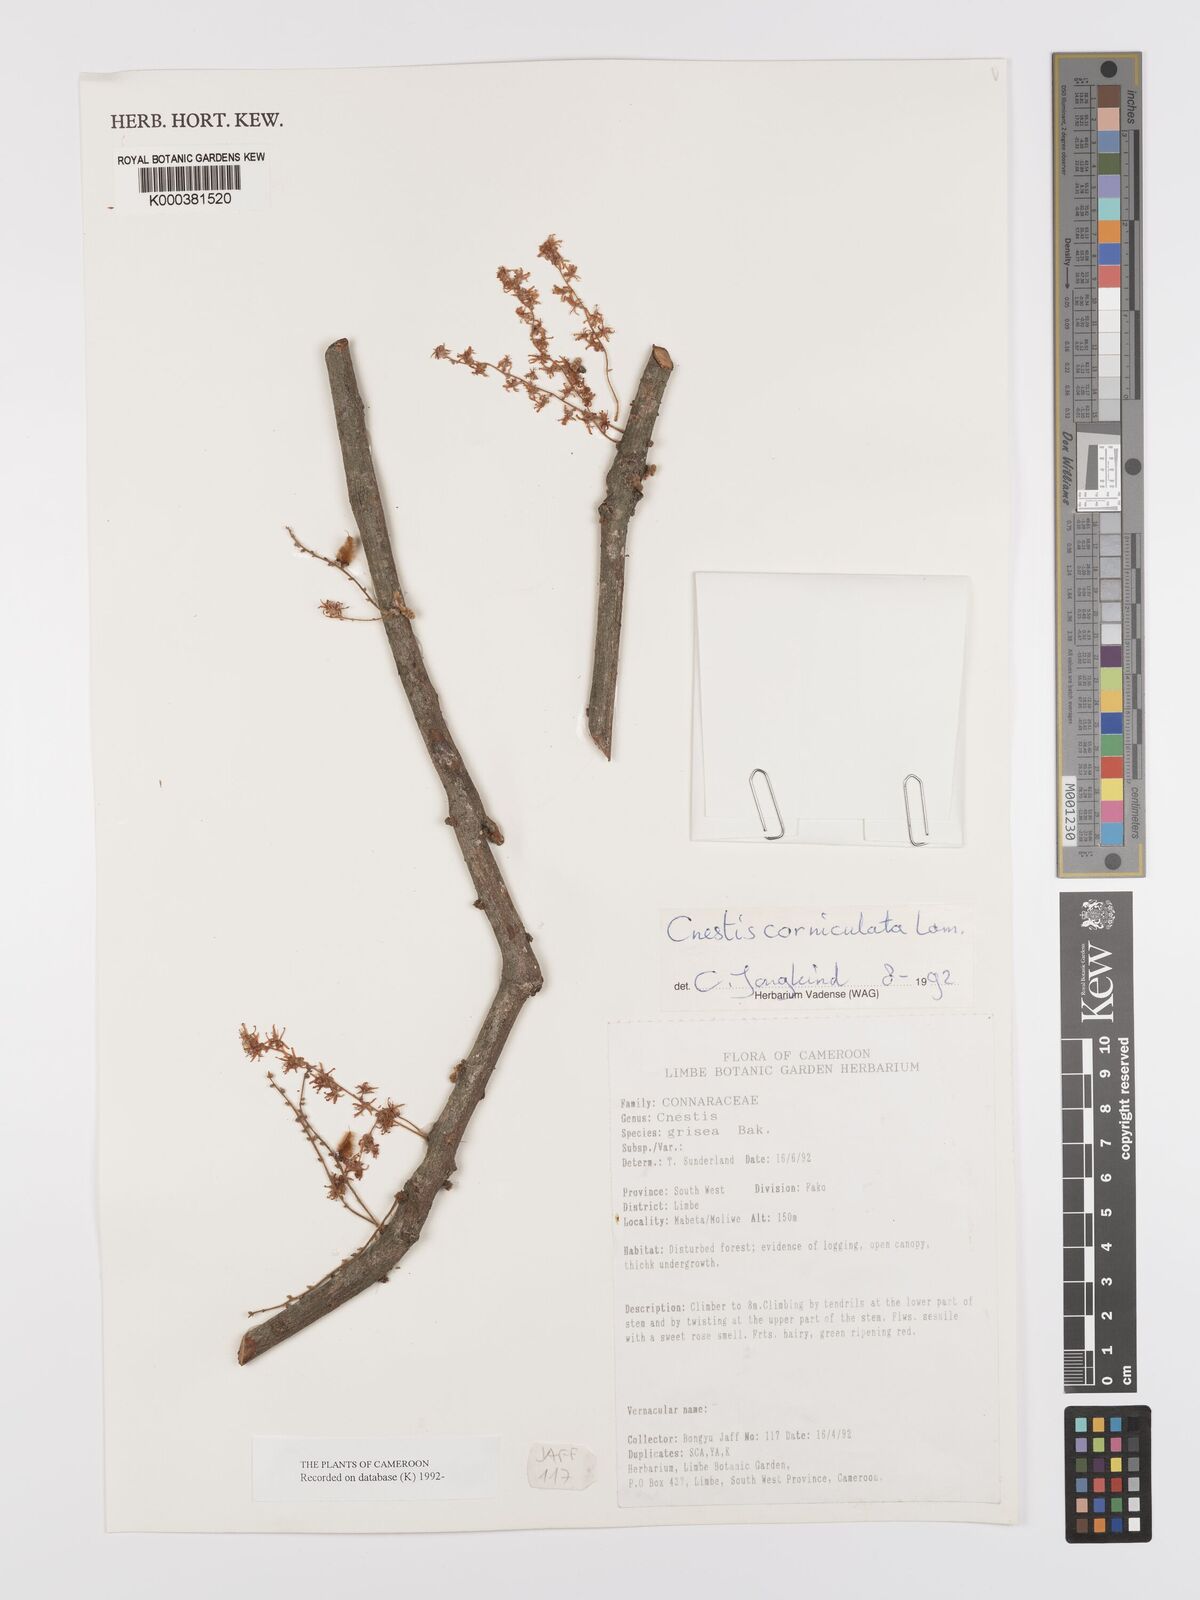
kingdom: Plantae
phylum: Tracheophyta
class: Magnoliopsida
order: Oxalidales
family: Connaraceae
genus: Cnestis
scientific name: Cnestis corniculata
